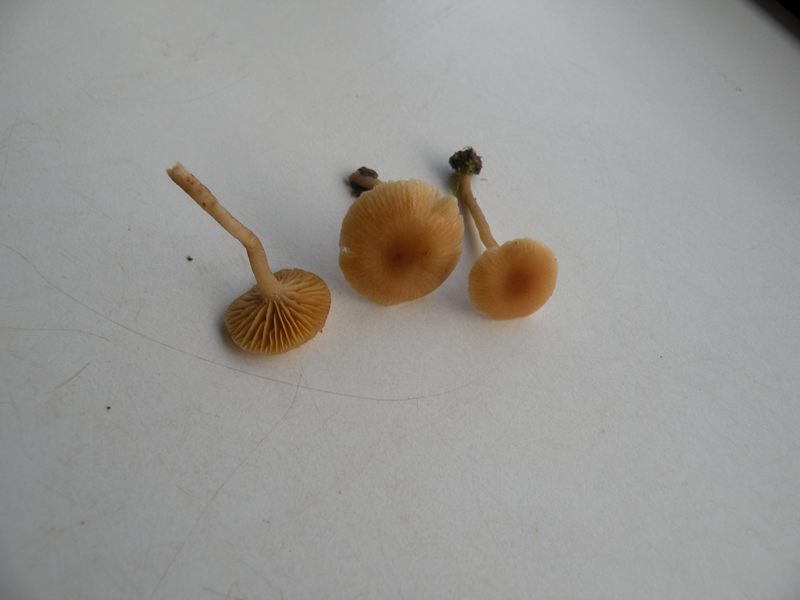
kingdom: Fungi
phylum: Basidiomycota
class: Agaricomycetes
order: Agaricales
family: Tubariaceae
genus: Tubaria
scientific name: Tubaria dispersa
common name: tjørne-fnughat
